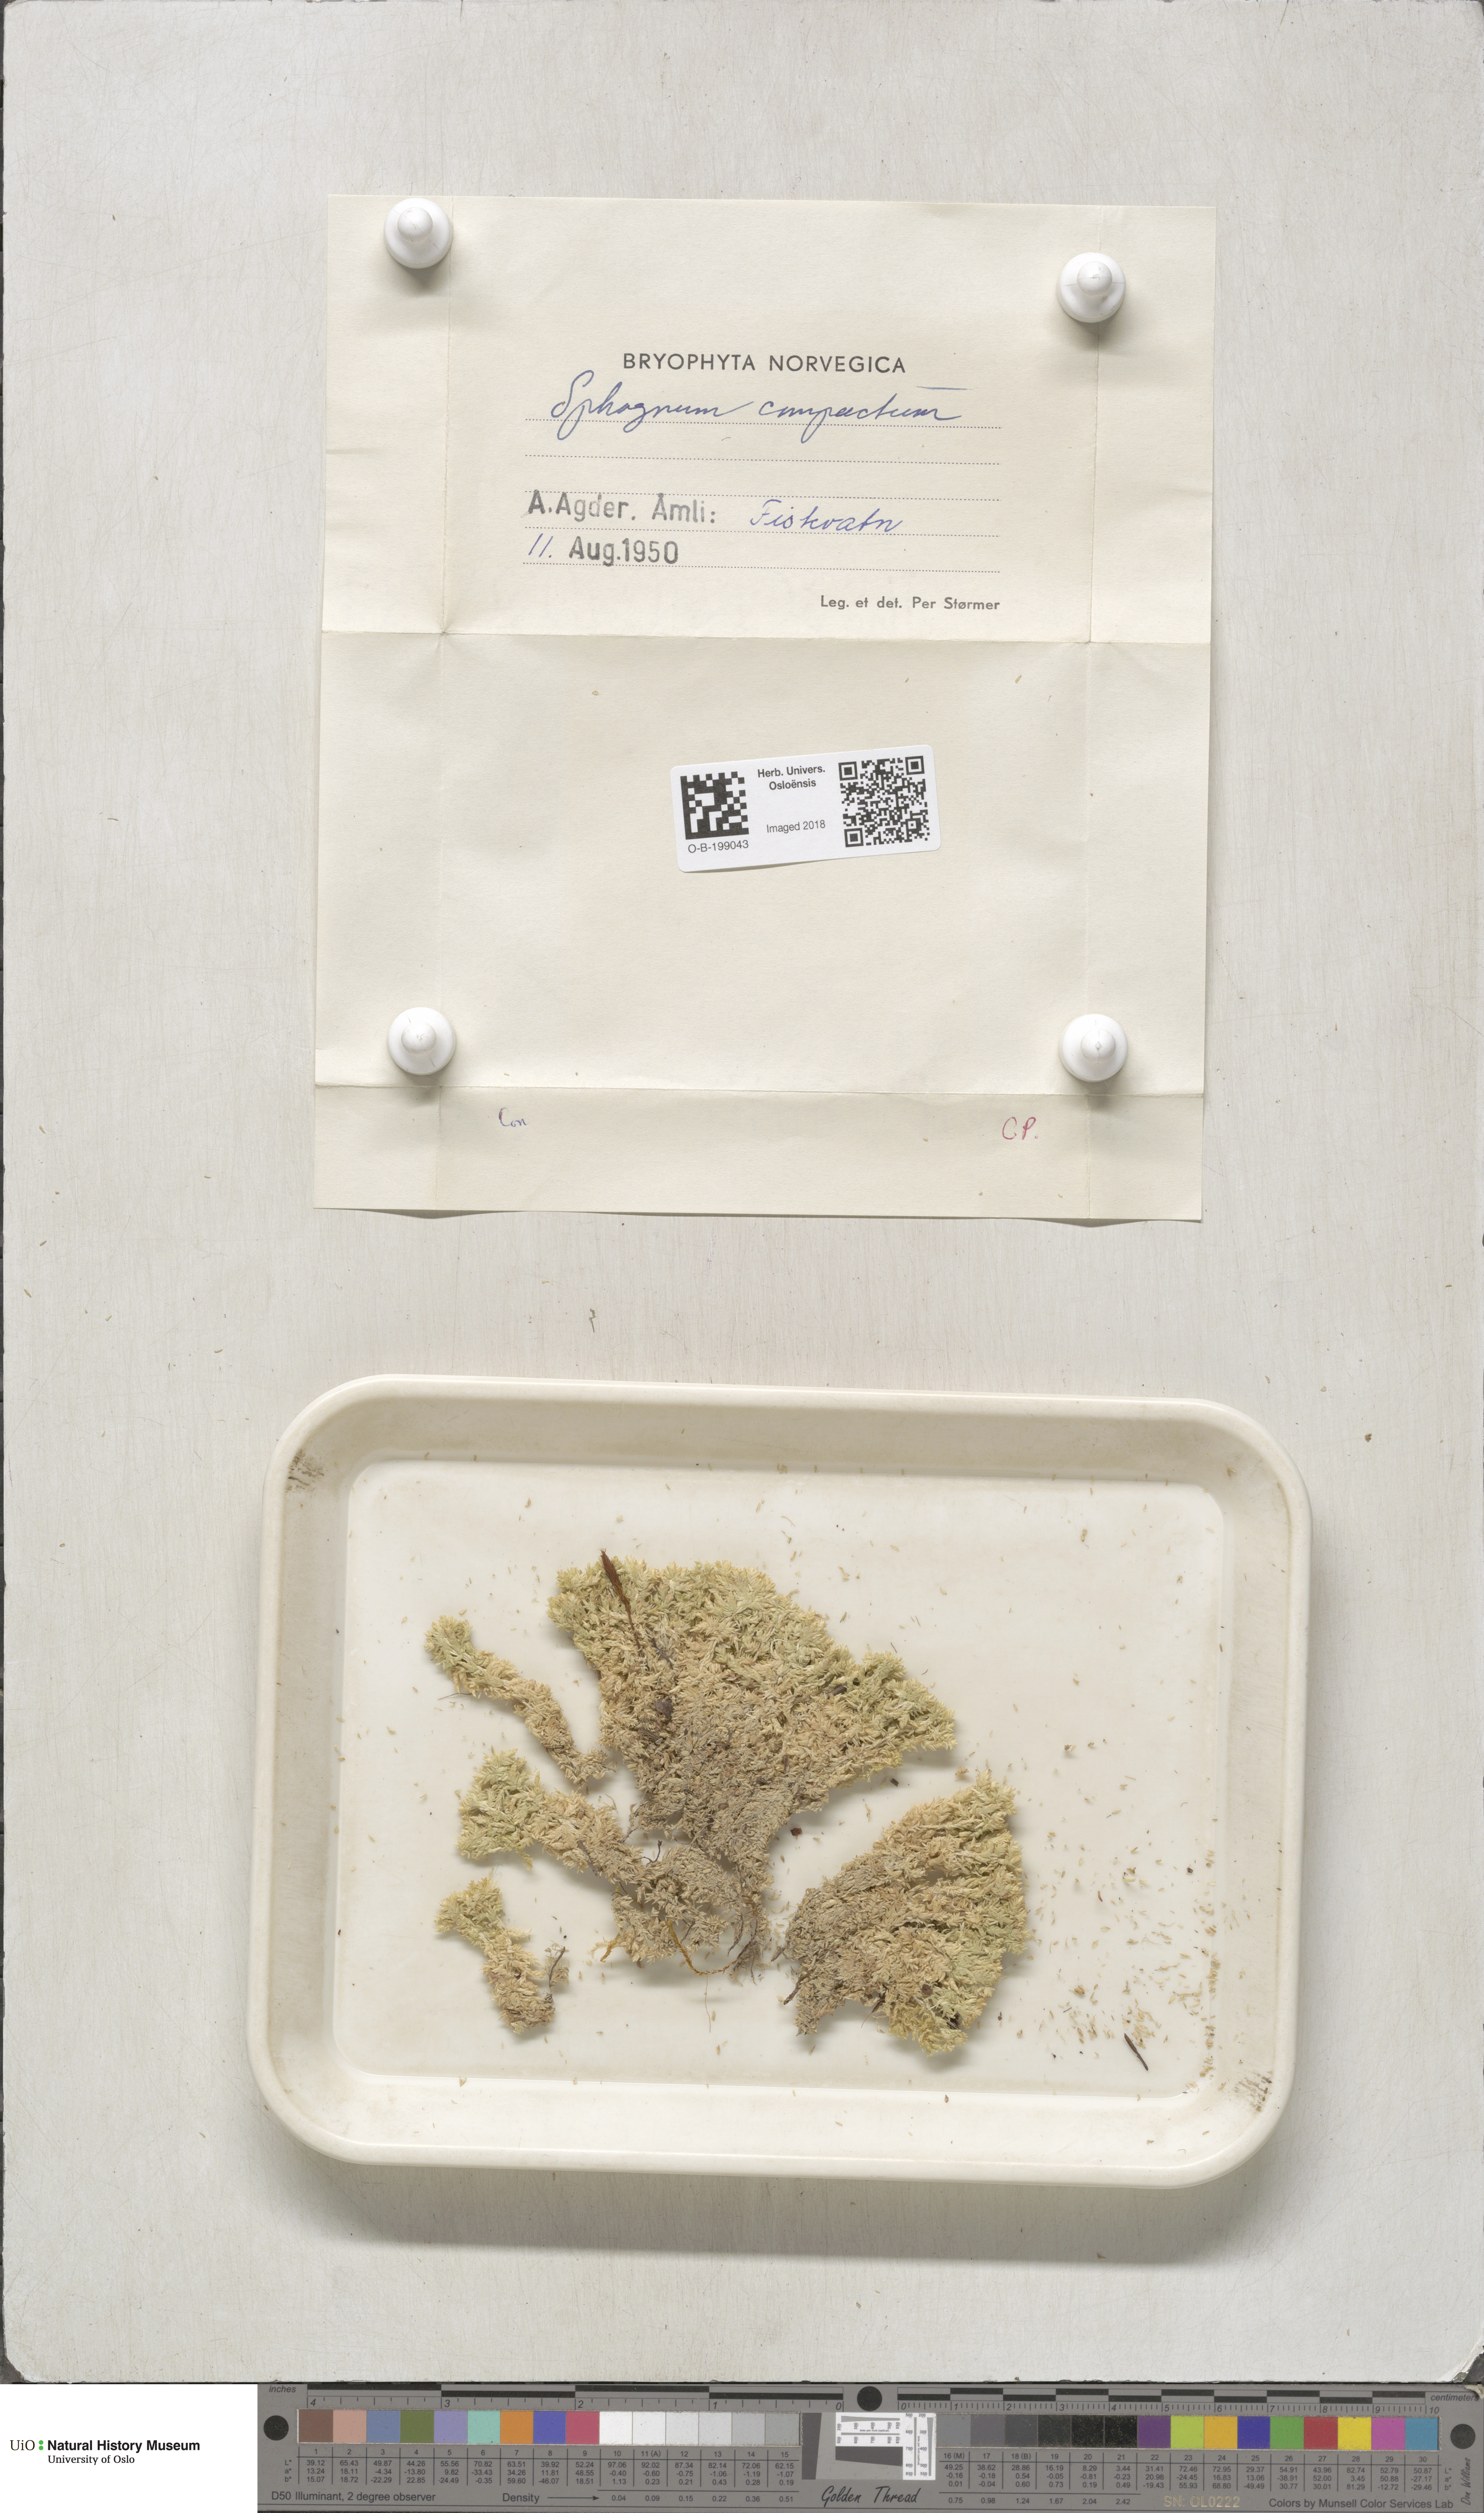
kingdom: Plantae
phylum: Bryophyta
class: Sphagnopsida
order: Sphagnales
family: Sphagnaceae
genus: Sphagnum
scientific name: Sphagnum compactum
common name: Compact peat moss
